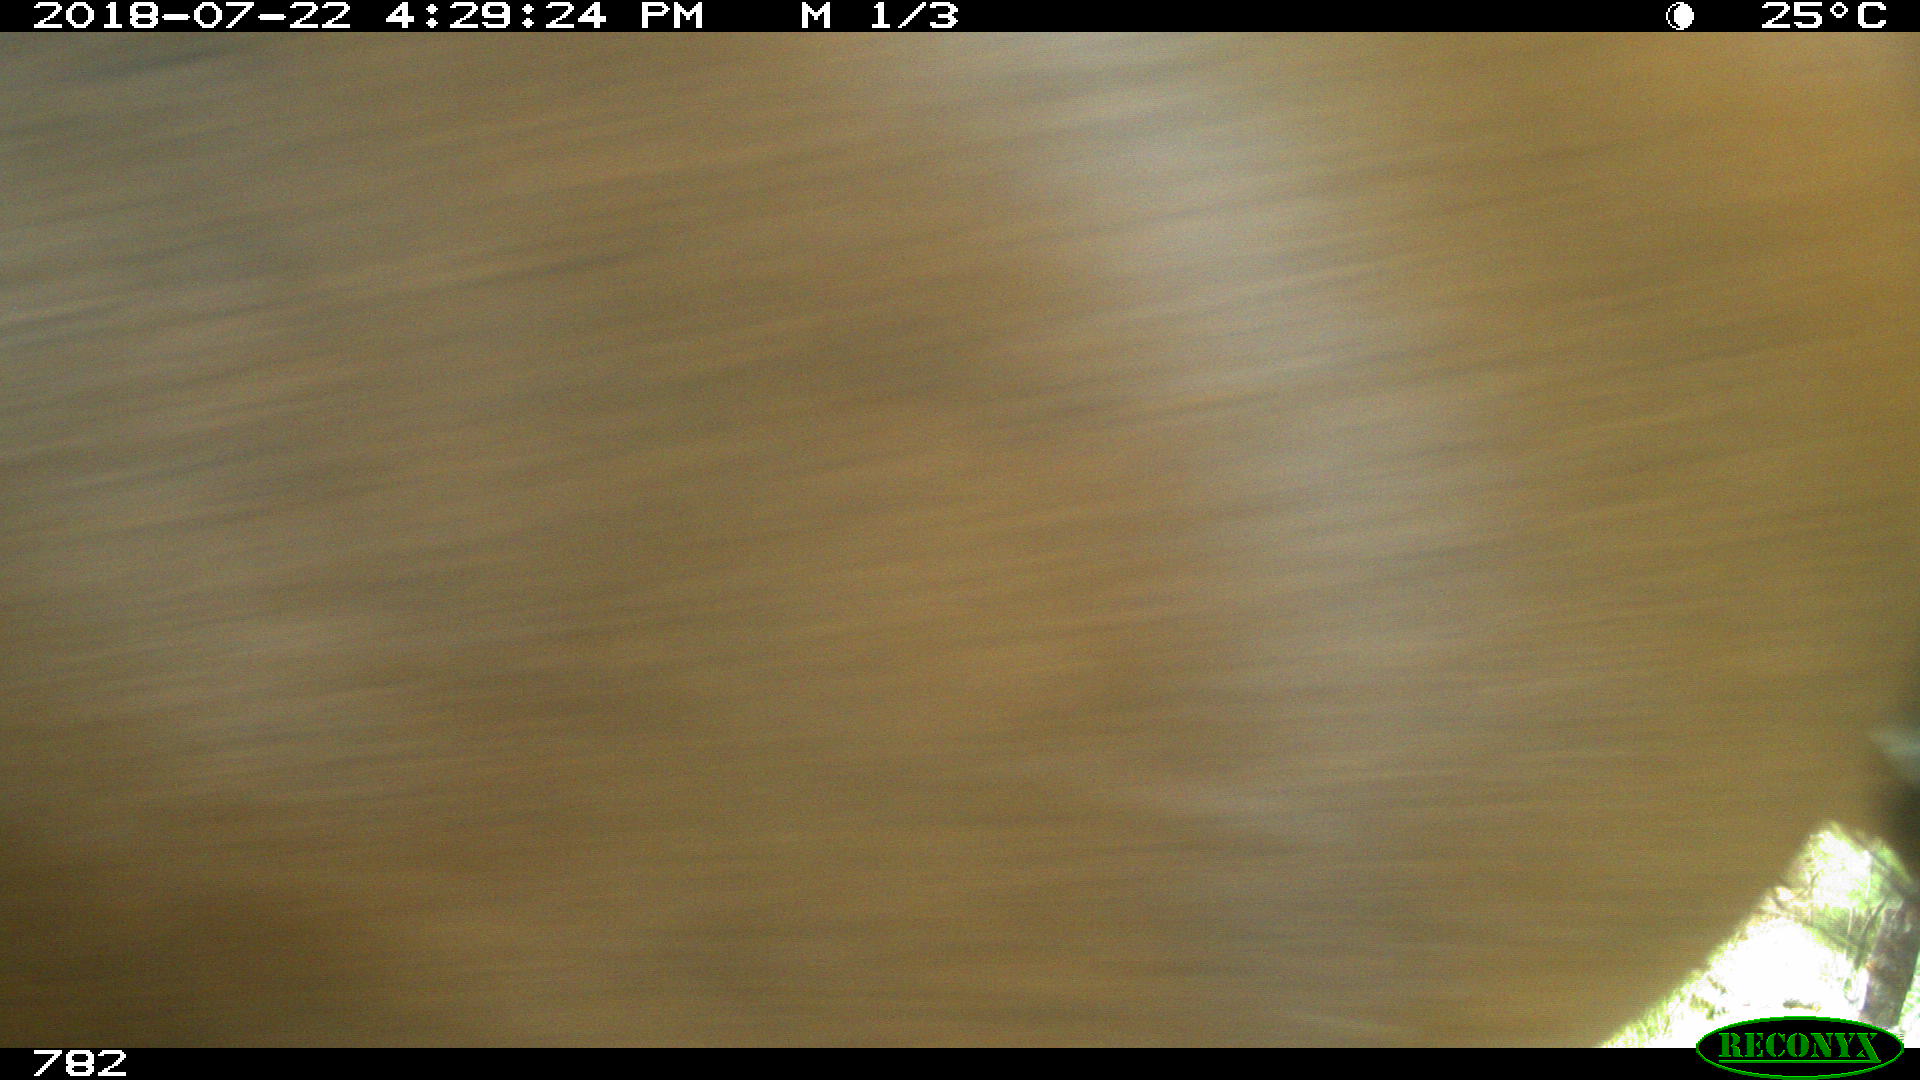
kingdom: Animalia
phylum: Chordata
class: Mammalia
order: Perissodactyla
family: Equidae
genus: Equus
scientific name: Equus caballus
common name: Horse
